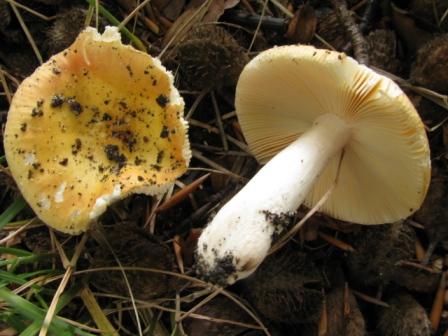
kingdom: Fungi
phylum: Basidiomycota
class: Agaricomycetes
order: Russulales
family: Russulaceae
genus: Russula
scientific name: Russula risigallina
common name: abrikos-skørhat
